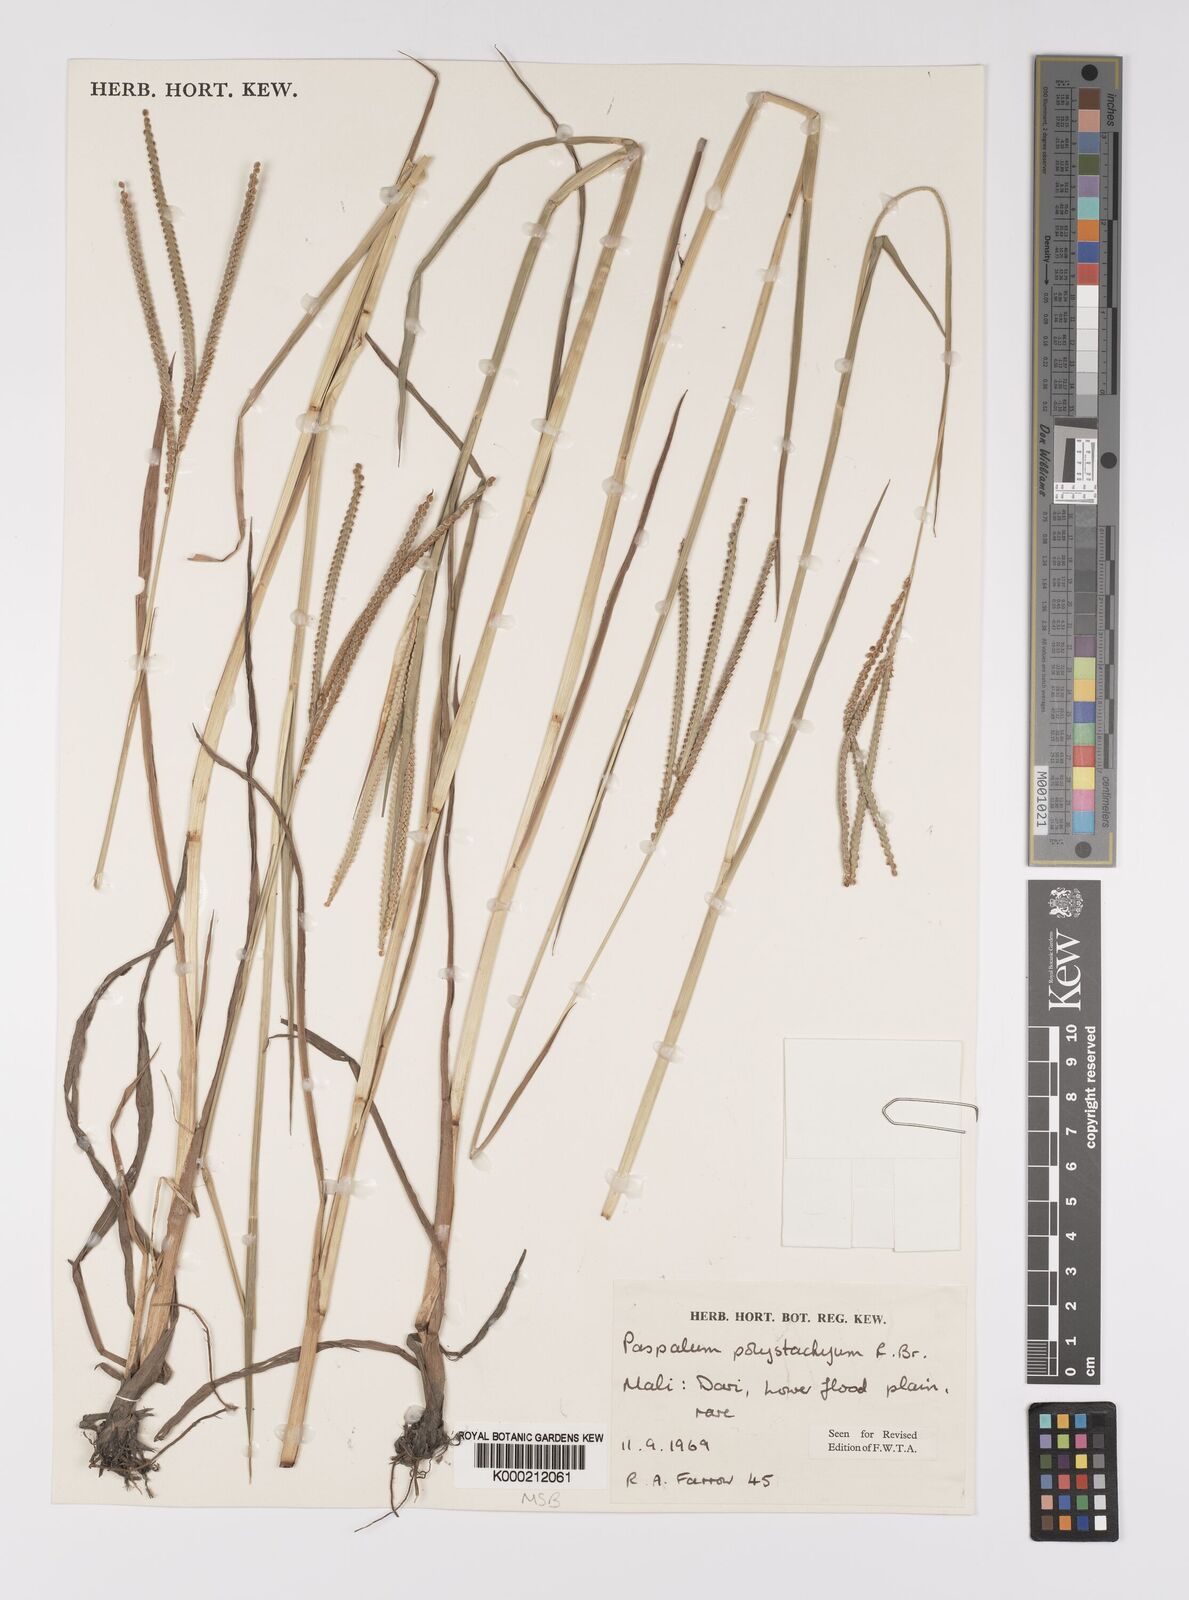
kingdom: Plantae
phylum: Tracheophyta
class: Liliopsida
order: Poales
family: Poaceae
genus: Paspalum
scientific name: Paspalum scrobiculatum
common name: Kodo millet
